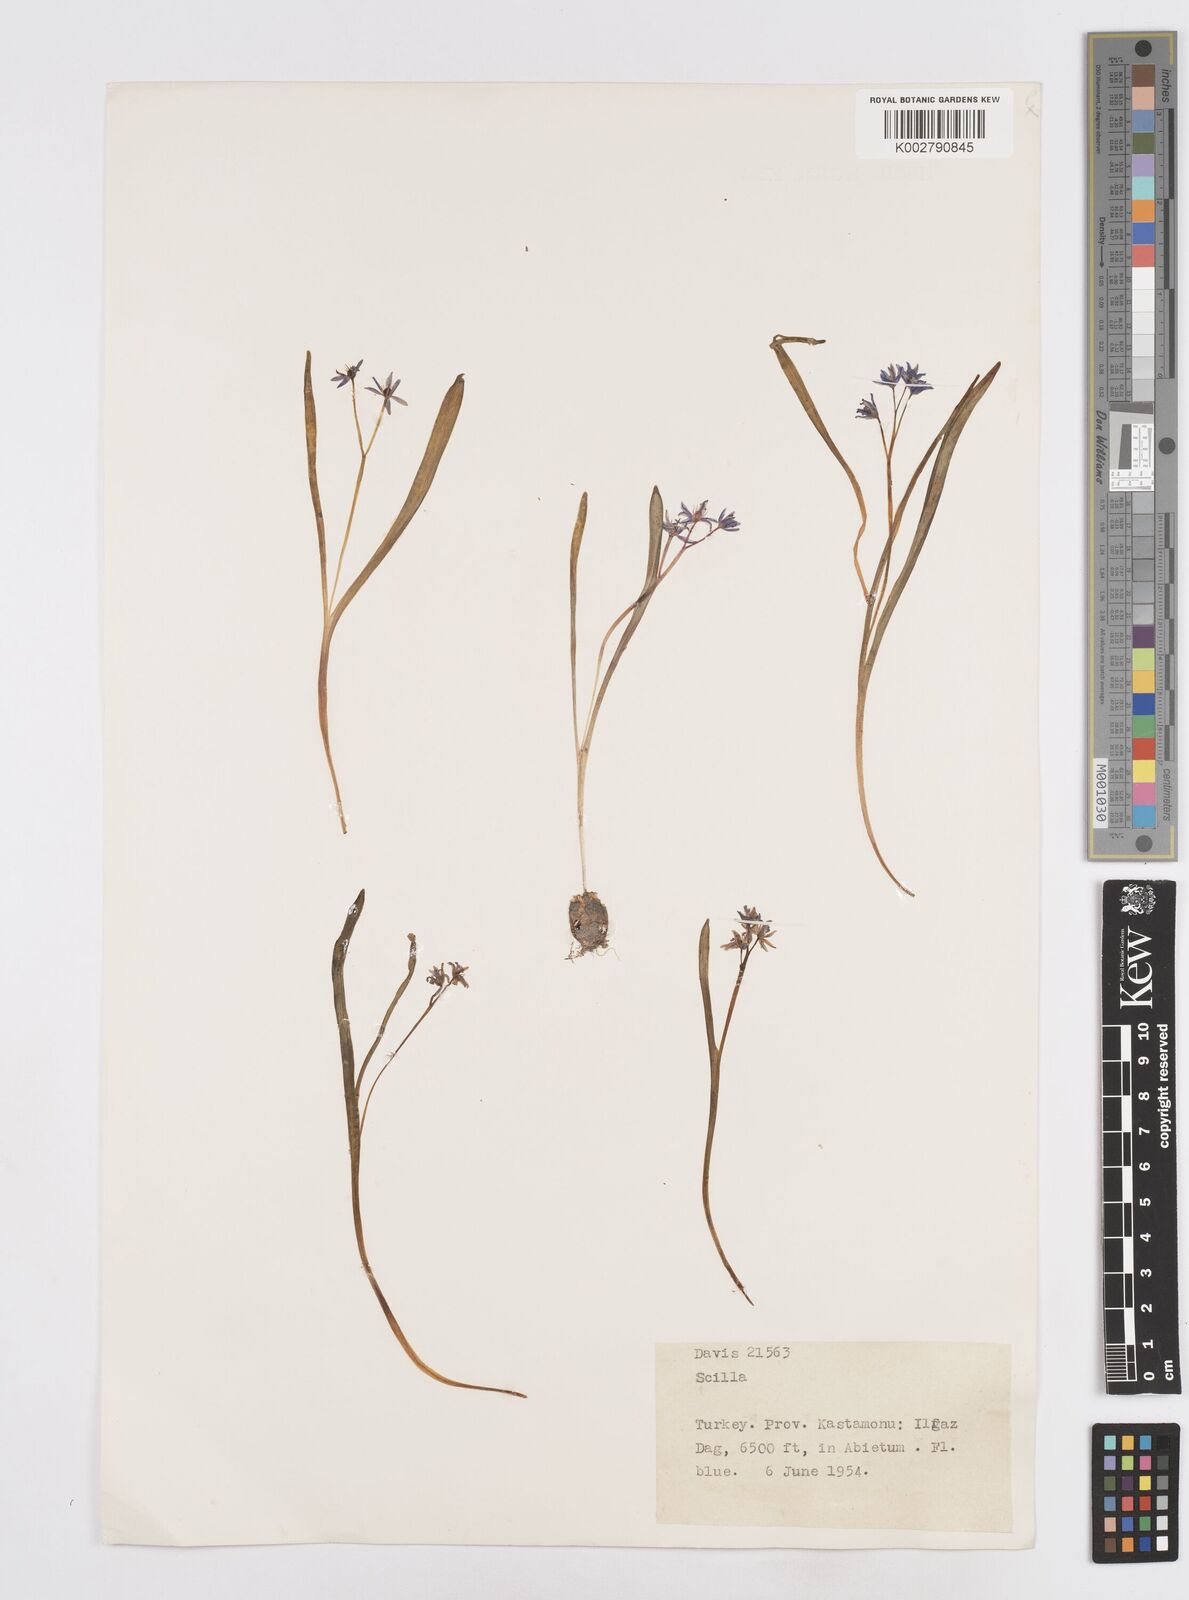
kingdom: Plantae
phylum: Tracheophyta
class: Liliopsida
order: Asparagales
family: Asparagaceae
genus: Scilla
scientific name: Scilla bifolia
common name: Alpine squill
